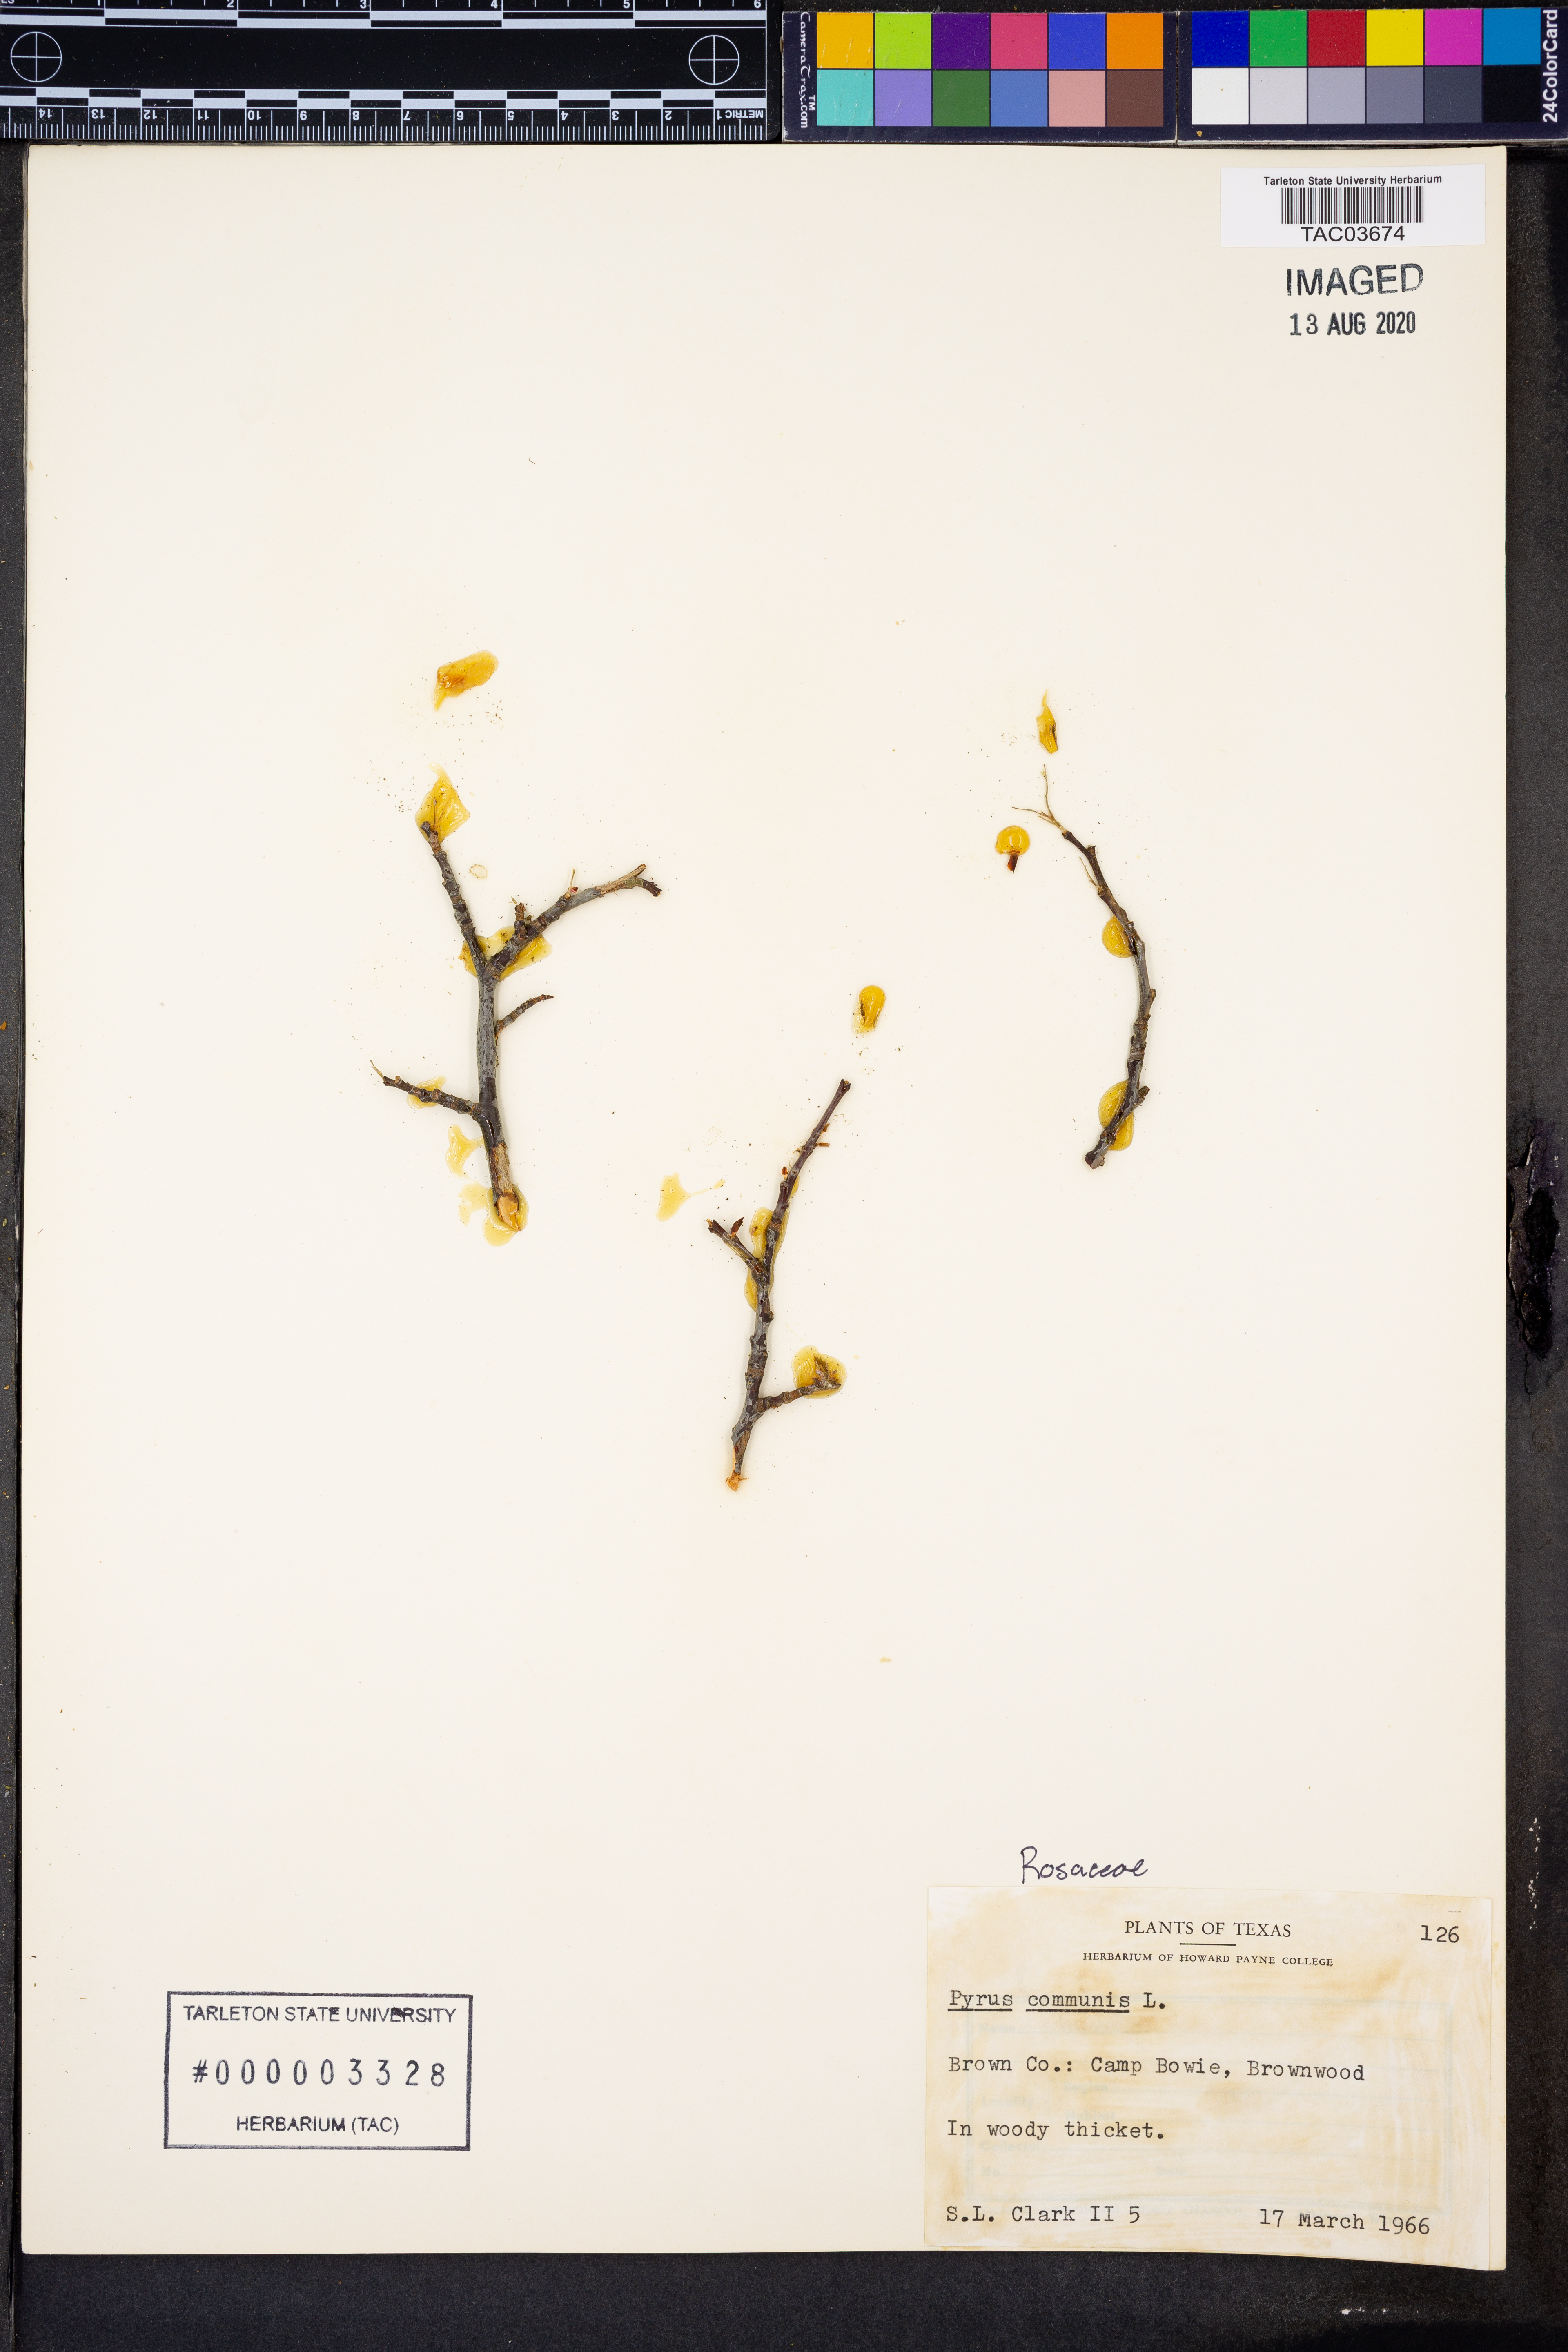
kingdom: Plantae
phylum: Tracheophyta
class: Magnoliopsida
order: Rosales
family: Rosaceae
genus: Pyrus
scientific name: Pyrus communis
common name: Pear
